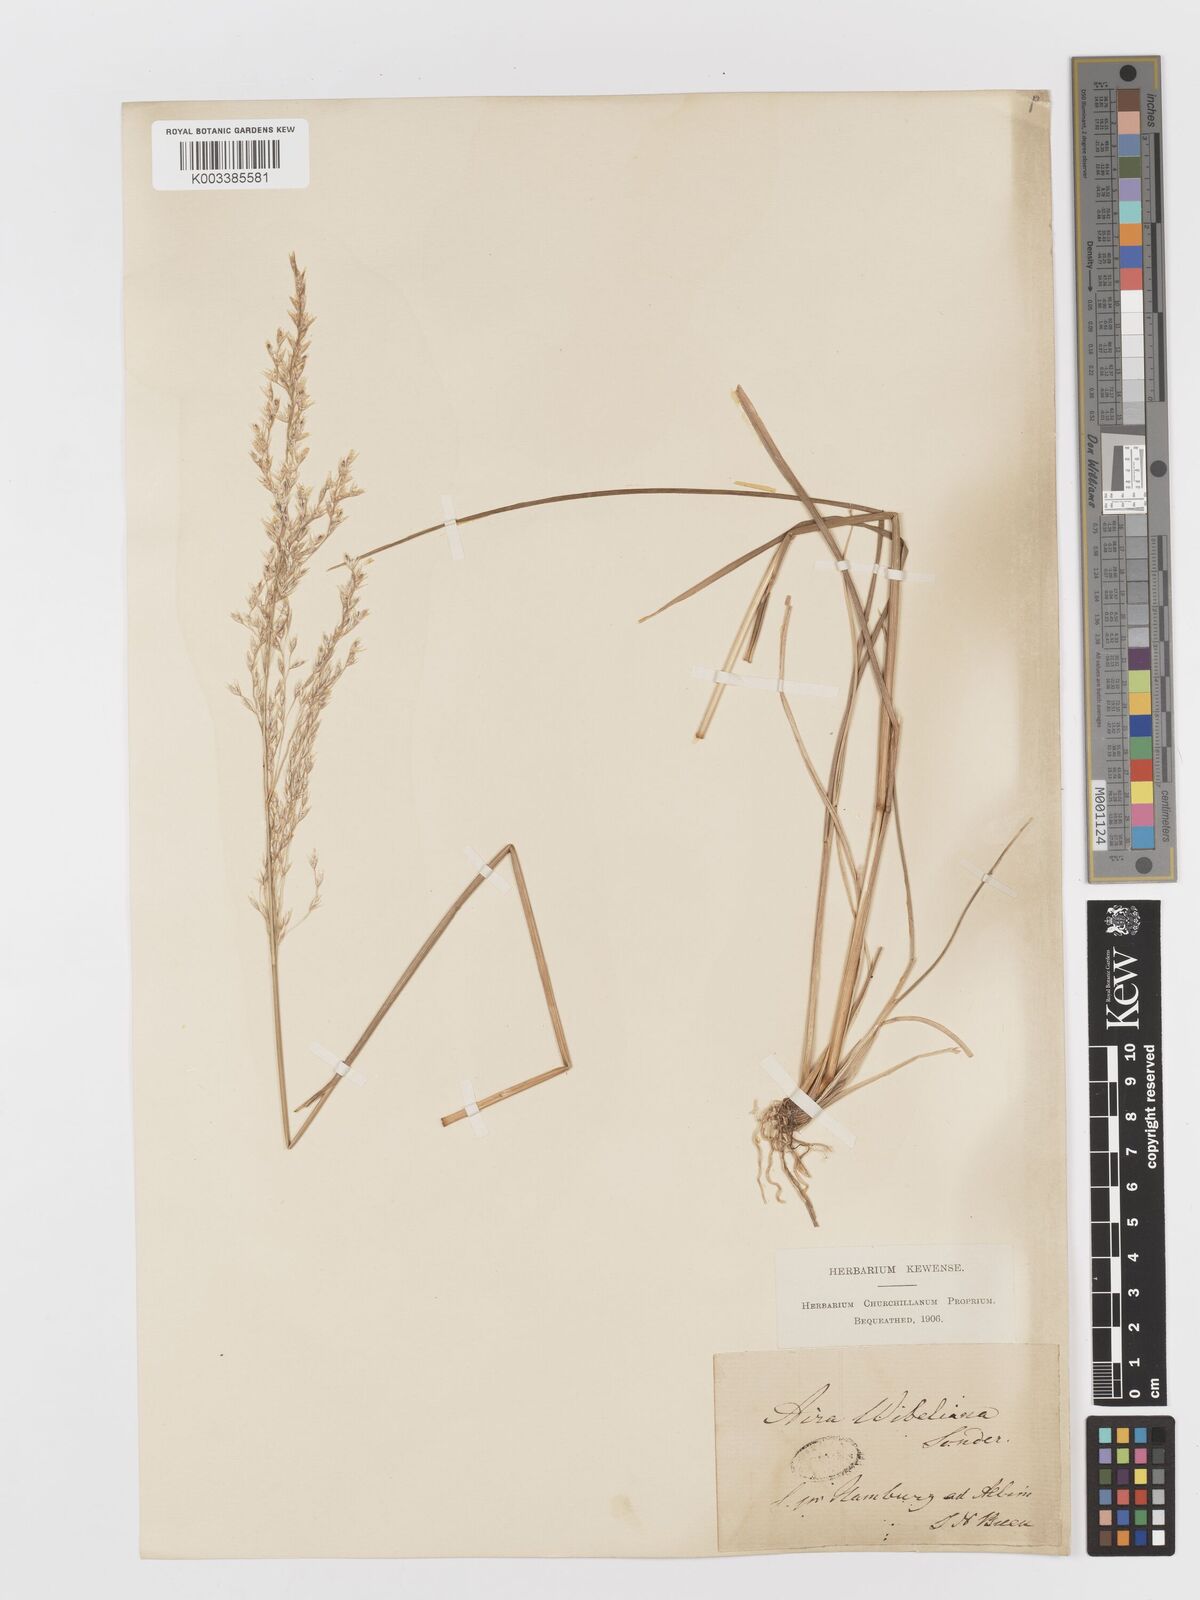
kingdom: Plantae
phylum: Tracheophyta
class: Liliopsida
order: Poales
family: Poaceae
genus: Deschampsia
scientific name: Deschampsia cespitosa
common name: Tufted hair-grass
